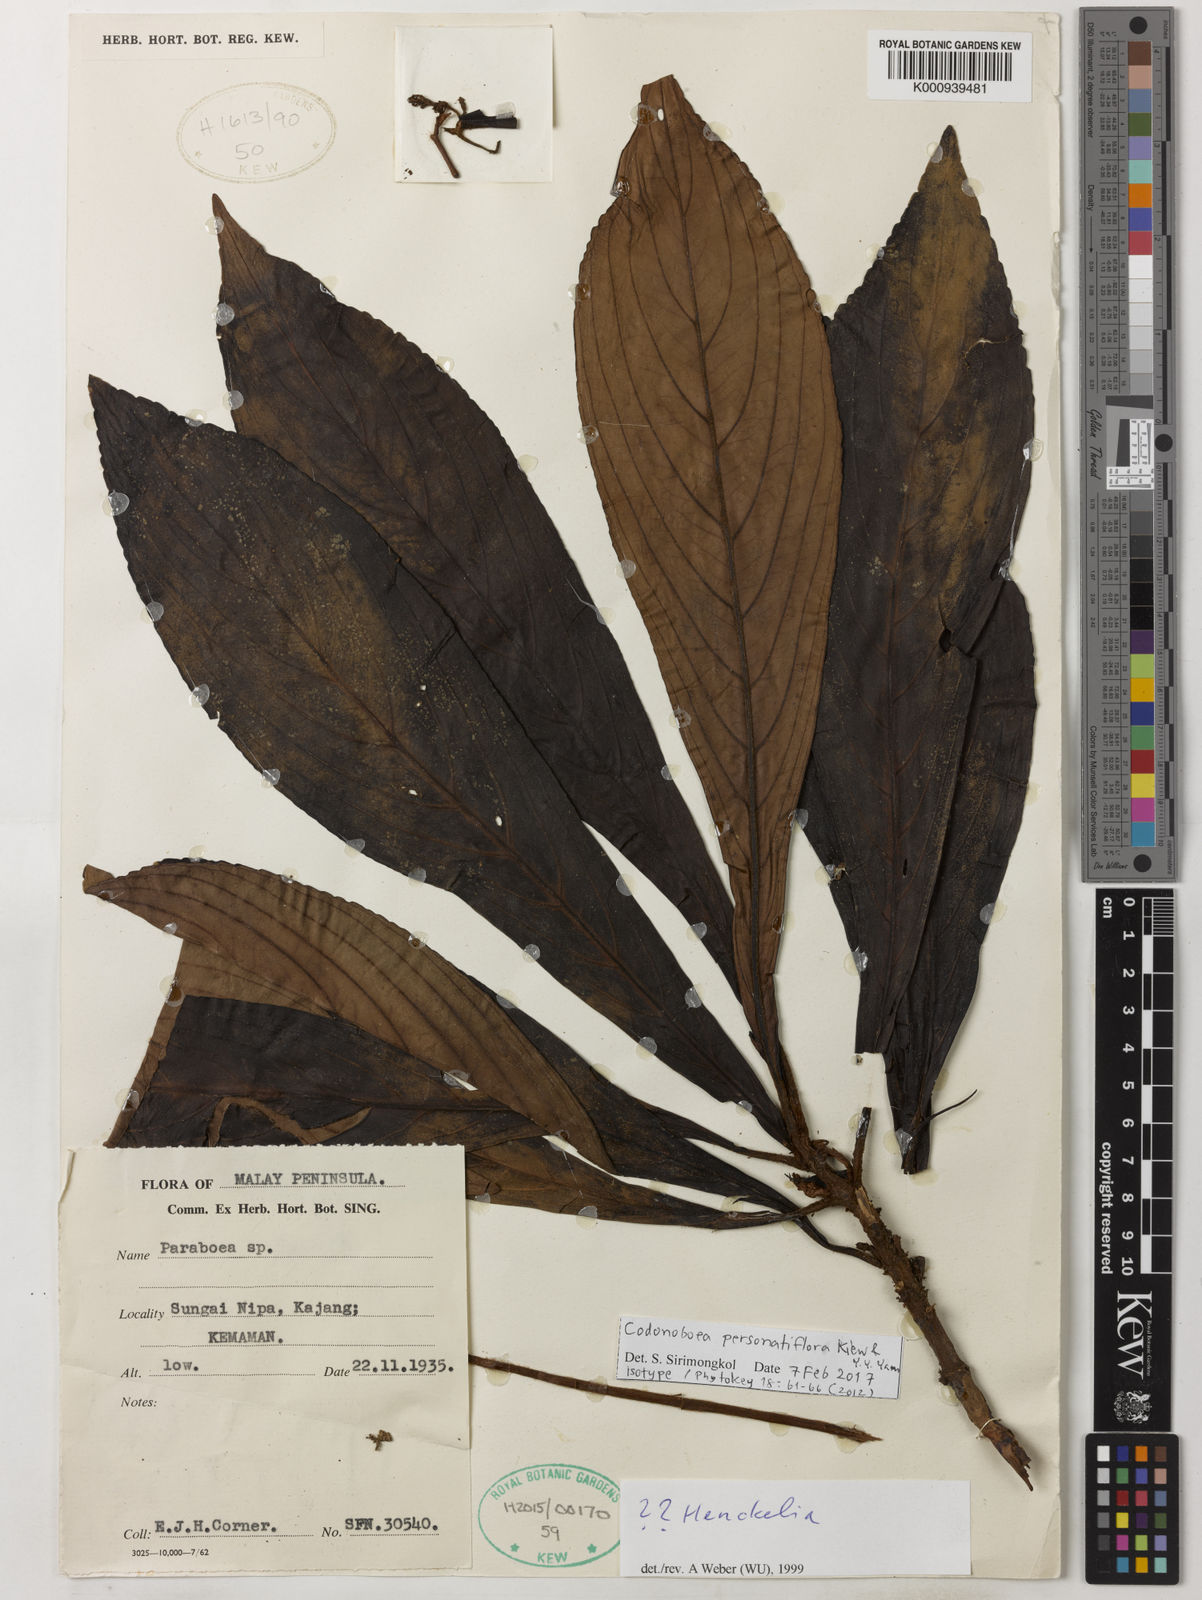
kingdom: Plantae
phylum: Tracheophyta
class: Magnoliopsida
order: Lamiales
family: Gesneriaceae
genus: Codonoboea
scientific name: Codonoboea personatiflora
